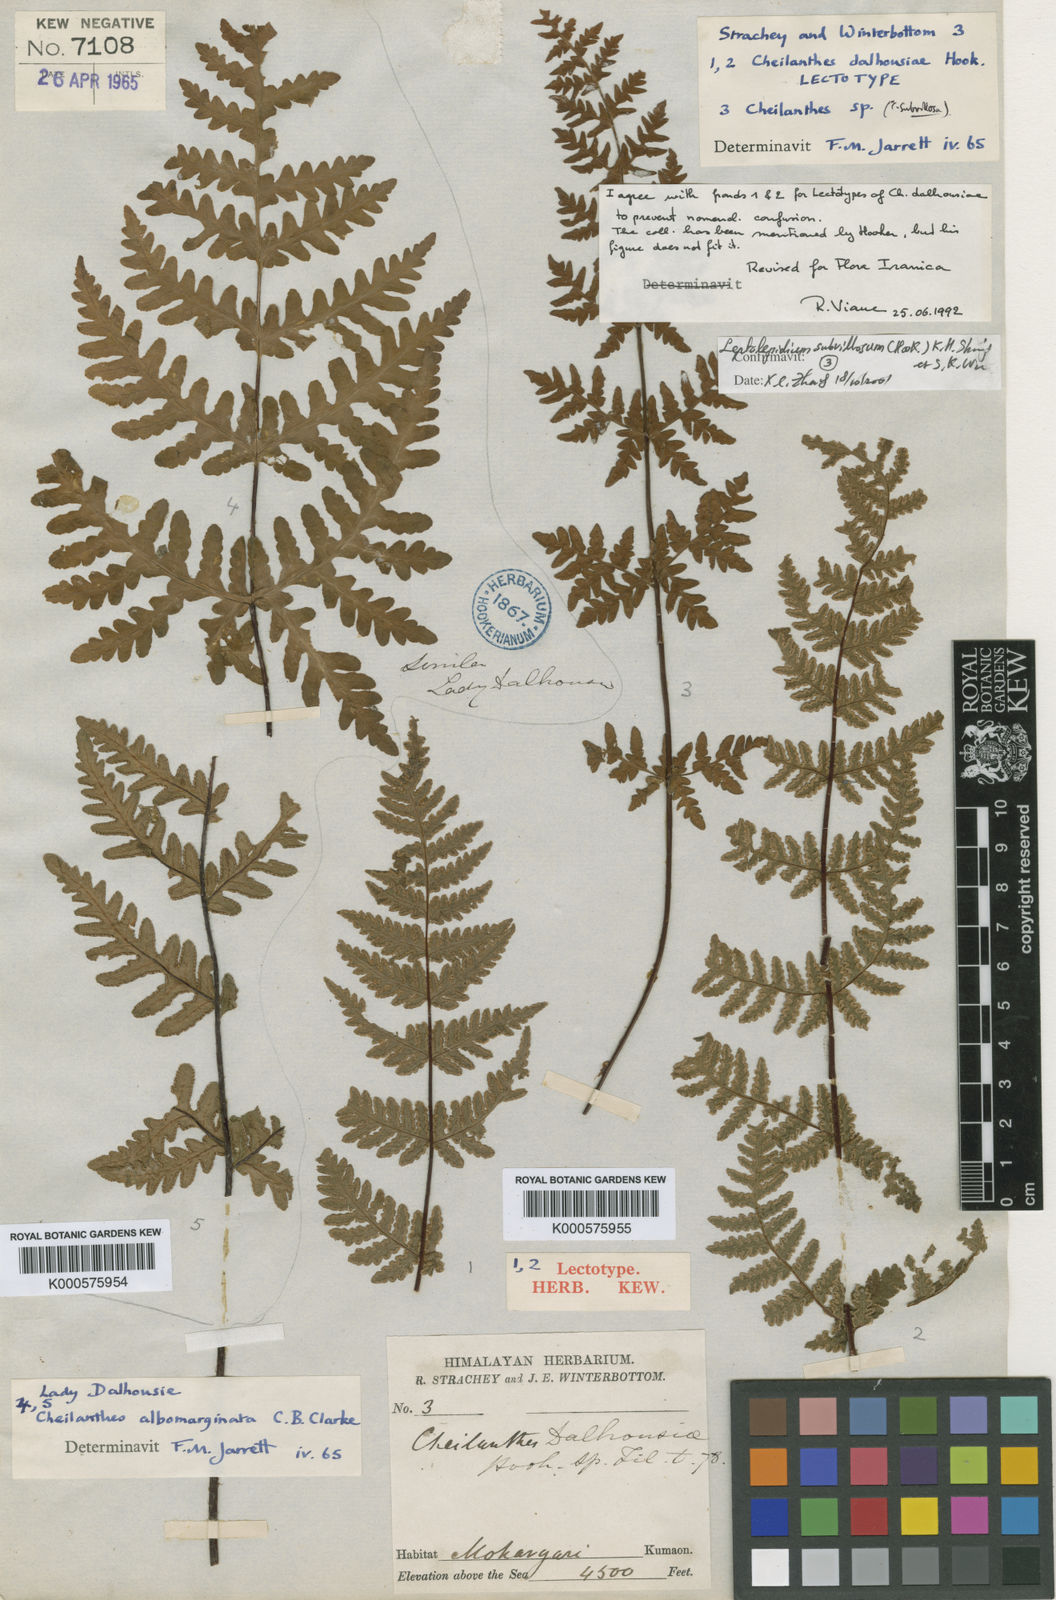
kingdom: Plantae
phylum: Tracheophyta
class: Polypodiopsida
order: Polypodiales
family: Pteridaceae
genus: Oeosporangium
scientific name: Oeosporangium subvillosum
